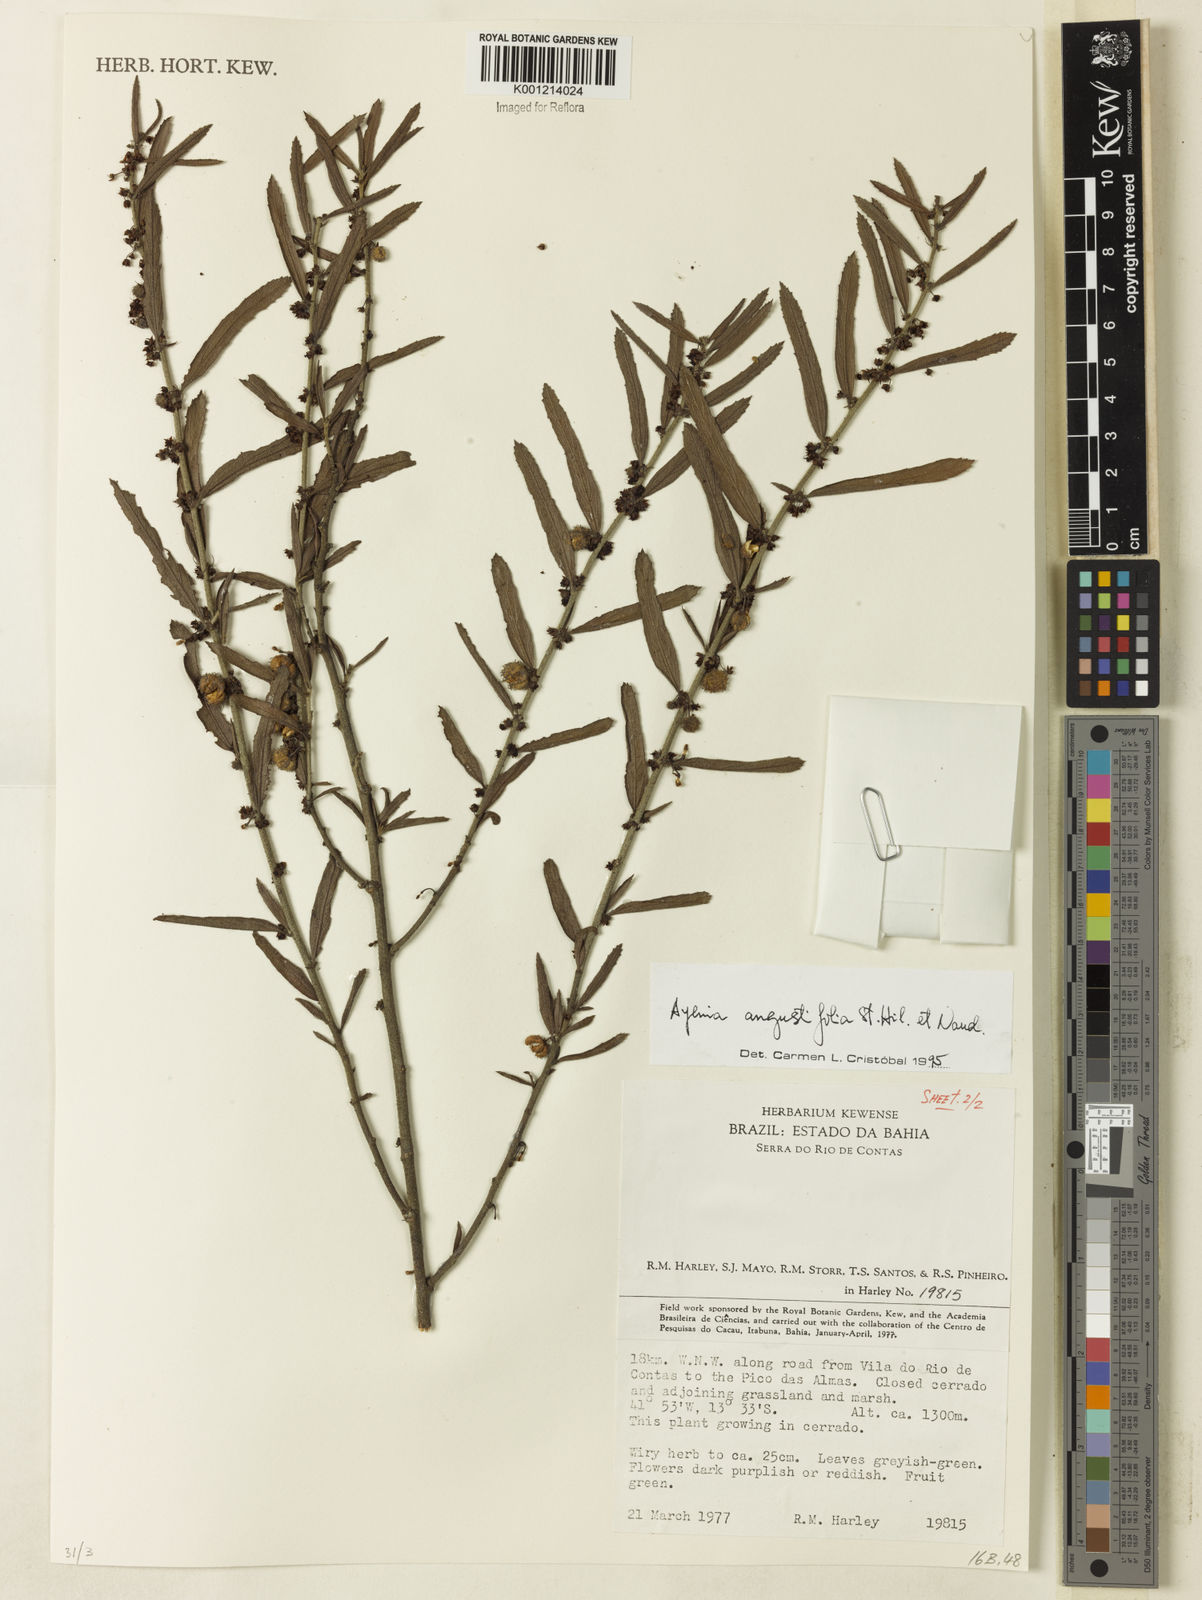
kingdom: Plantae
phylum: Tracheophyta
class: Magnoliopsida
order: Malvales
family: Malvaceae
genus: Ayenia
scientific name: Ayenia angustifolia
